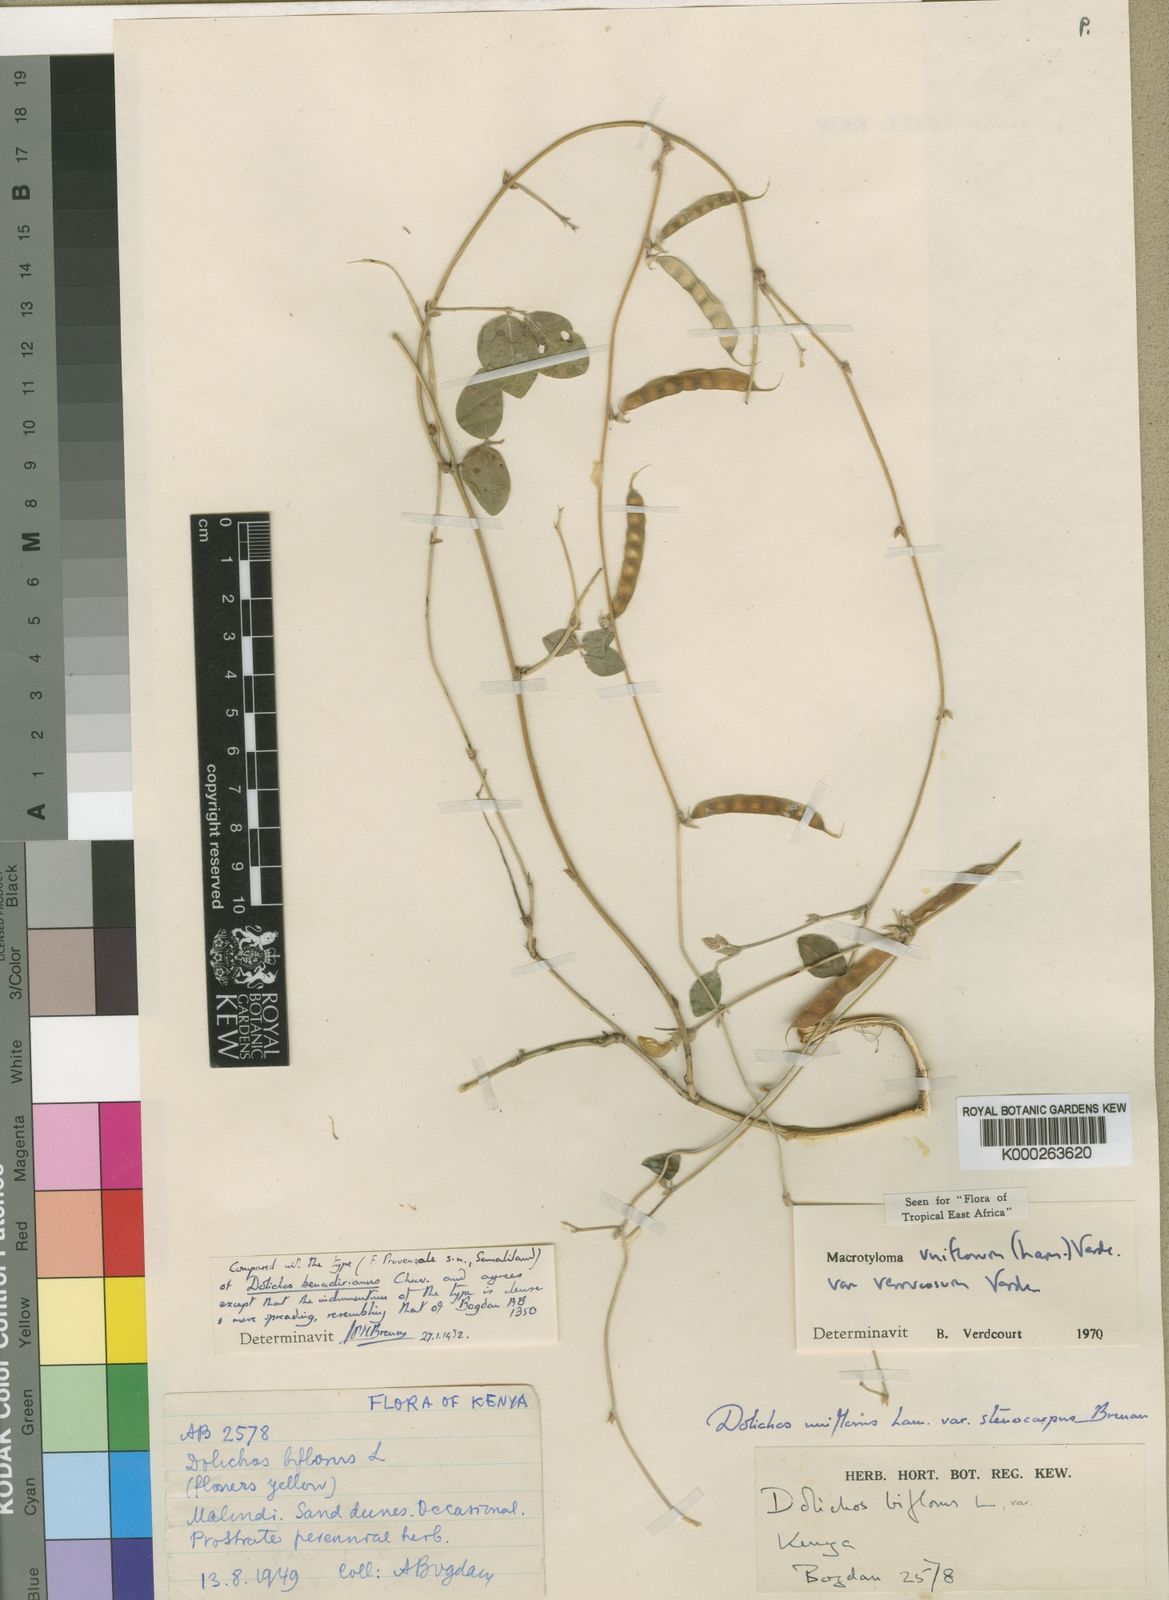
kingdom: Plantae
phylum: Tracheophyta
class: Magnoliopsida
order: Fabales
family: Fabaceae
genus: Macrotyloma
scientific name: Macrotyloma uniflorum
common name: Horse gram
